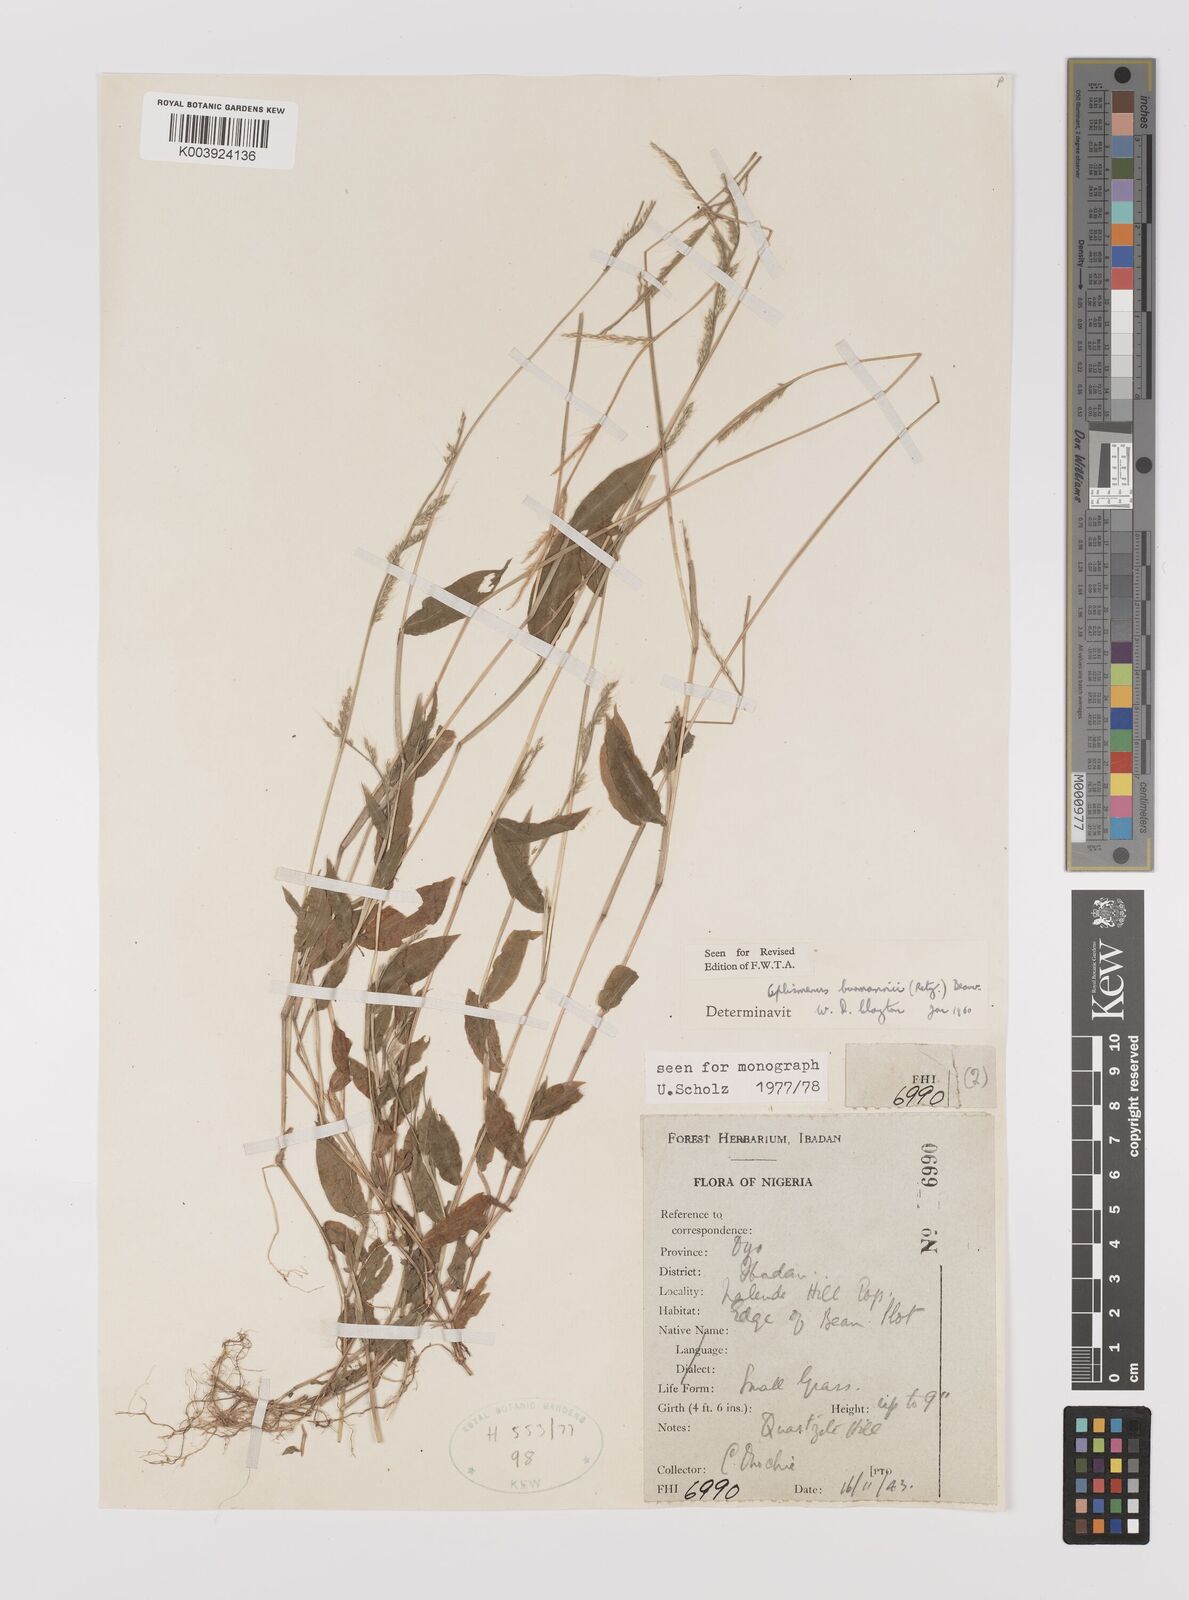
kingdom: Plantae
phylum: Tracheophyta
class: Liliopsida
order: Poales
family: Poaceae
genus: Oplismenus
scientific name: Oplismenus burmanni
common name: Burmann's basketgrass
